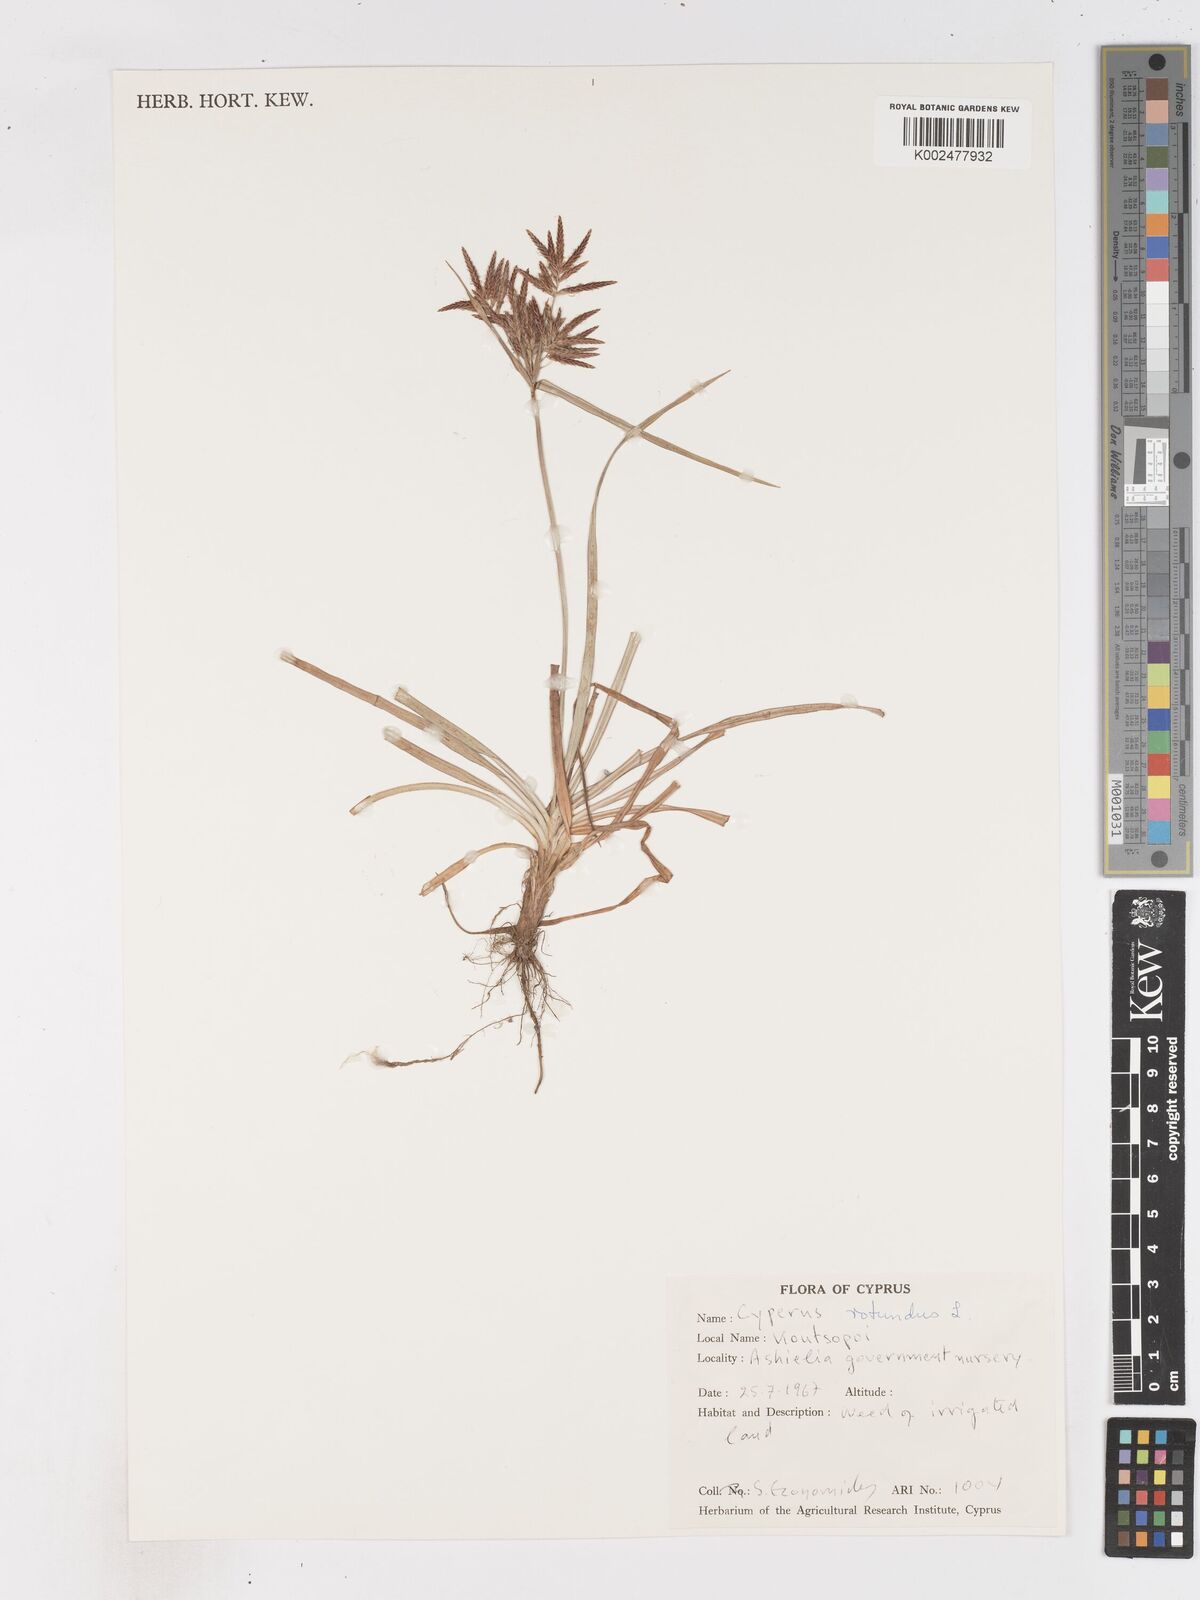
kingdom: Plantae
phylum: Tracheophyta
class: Liliopsida
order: Poales
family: Cyperaceae
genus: Cyperus
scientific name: Cyperus rotundus
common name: Nutgrass
